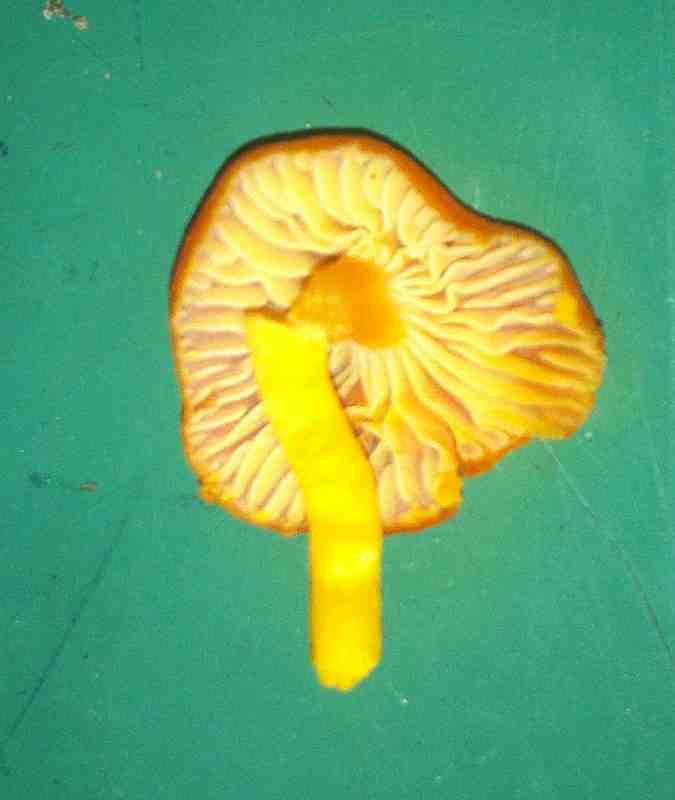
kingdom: Fungi
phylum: Basidiomycota
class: Agaricomycetes
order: Agaricales
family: Hygrophoraceae
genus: Hygrocybe
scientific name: Hygrocybe reidii
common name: honning-vokshat
